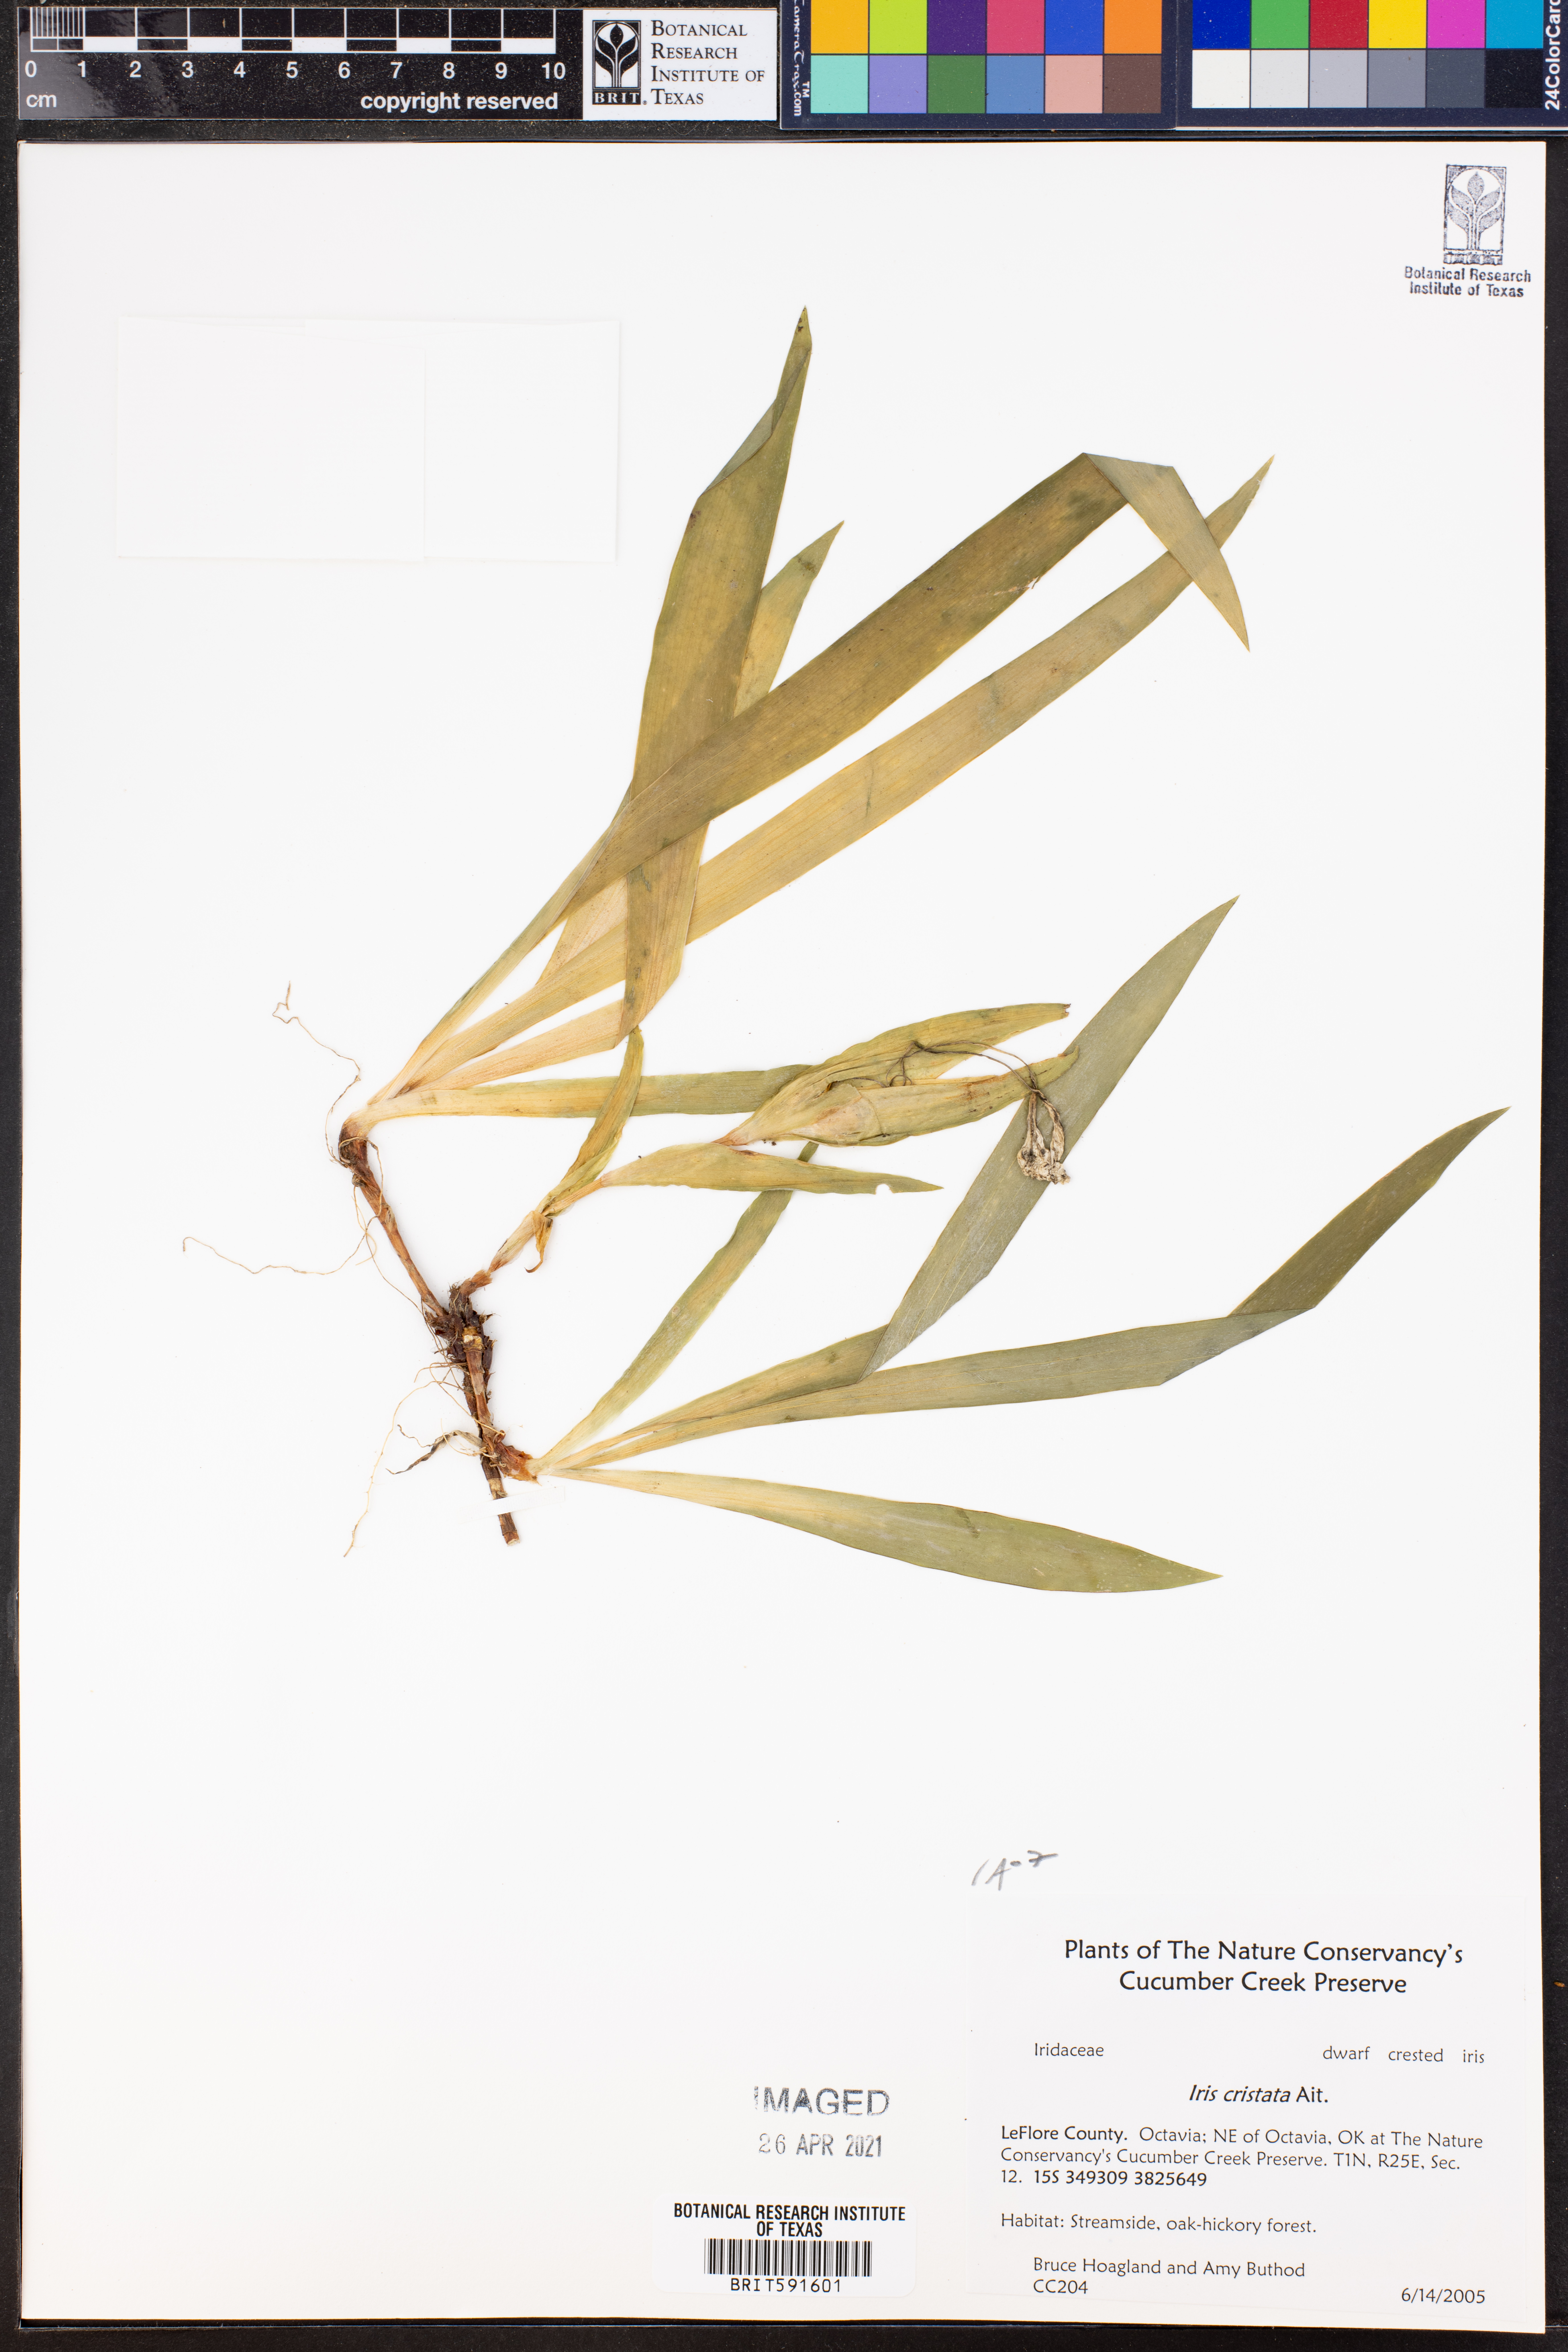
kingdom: Plantae
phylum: Tracheophyta
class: Liliopsida
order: Asparagales
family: Iridaceae
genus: Iris
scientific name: Iris cristata
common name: Crested iris
